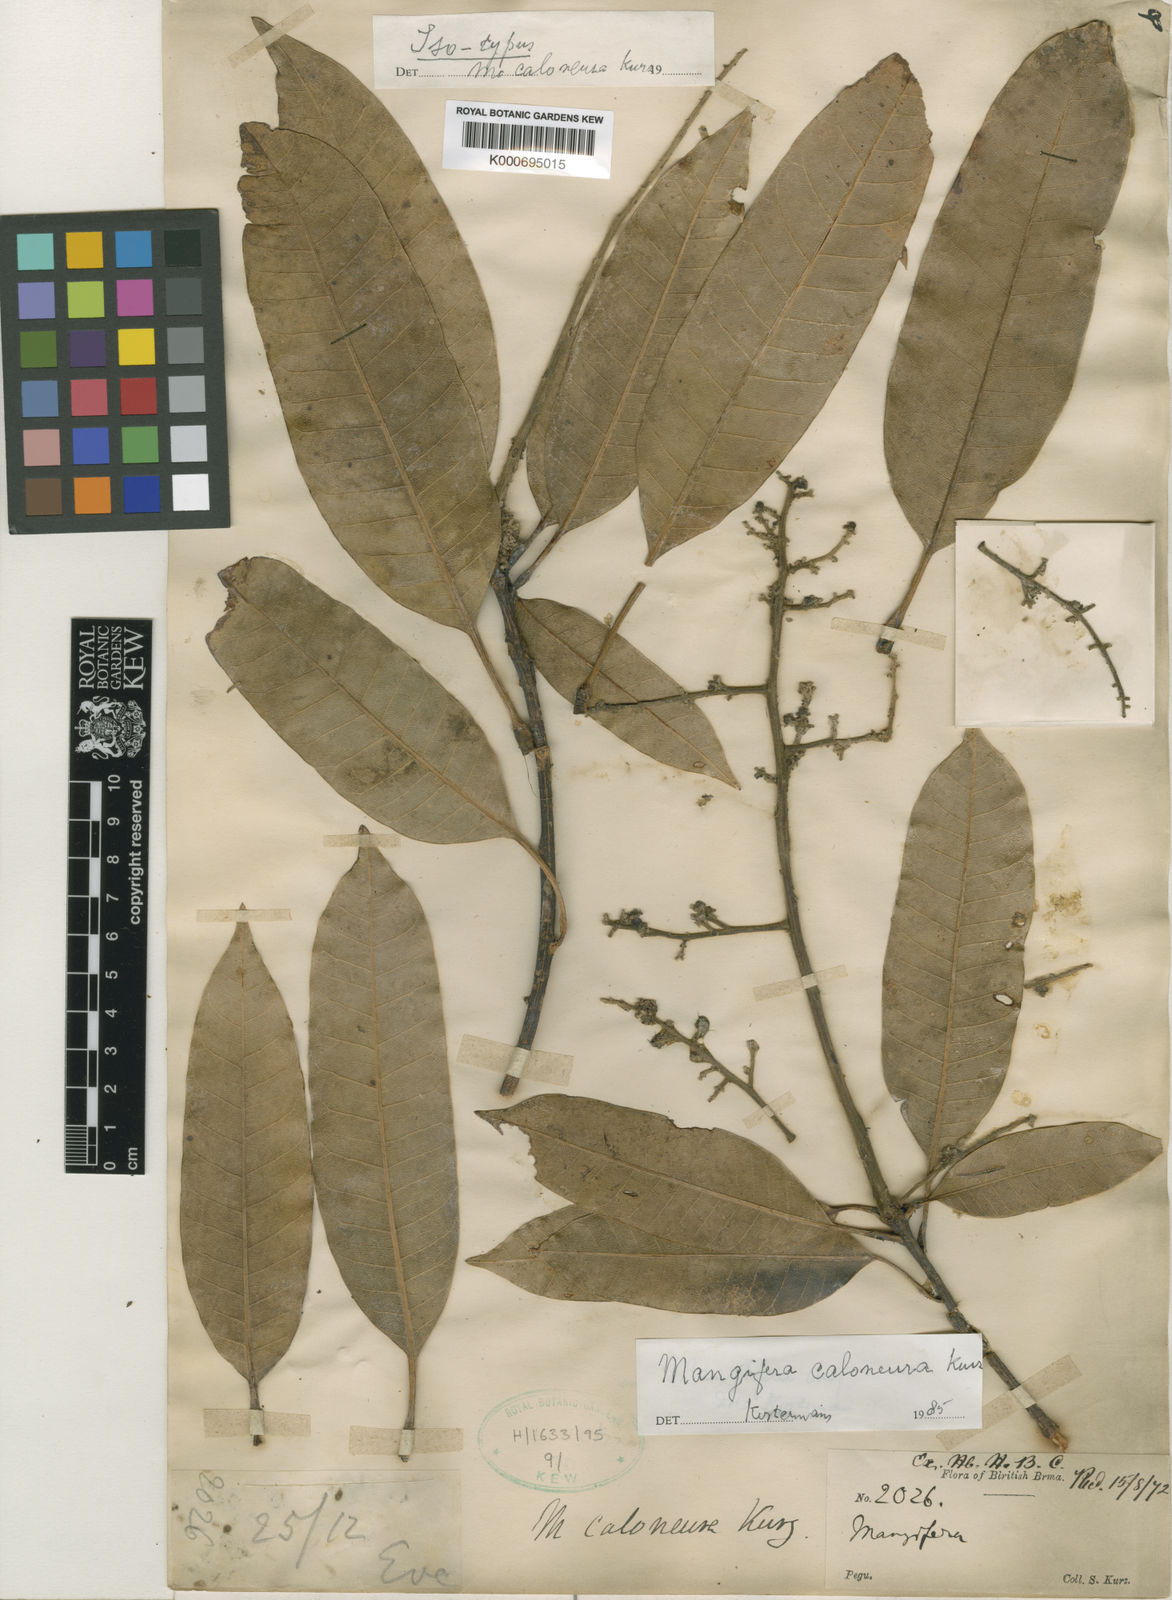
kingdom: Plantae
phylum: Tracheophyta
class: Magnoliopsida
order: Sapindales
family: Anacardiaceae
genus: Mangifera
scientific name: Mangifera caloneura
